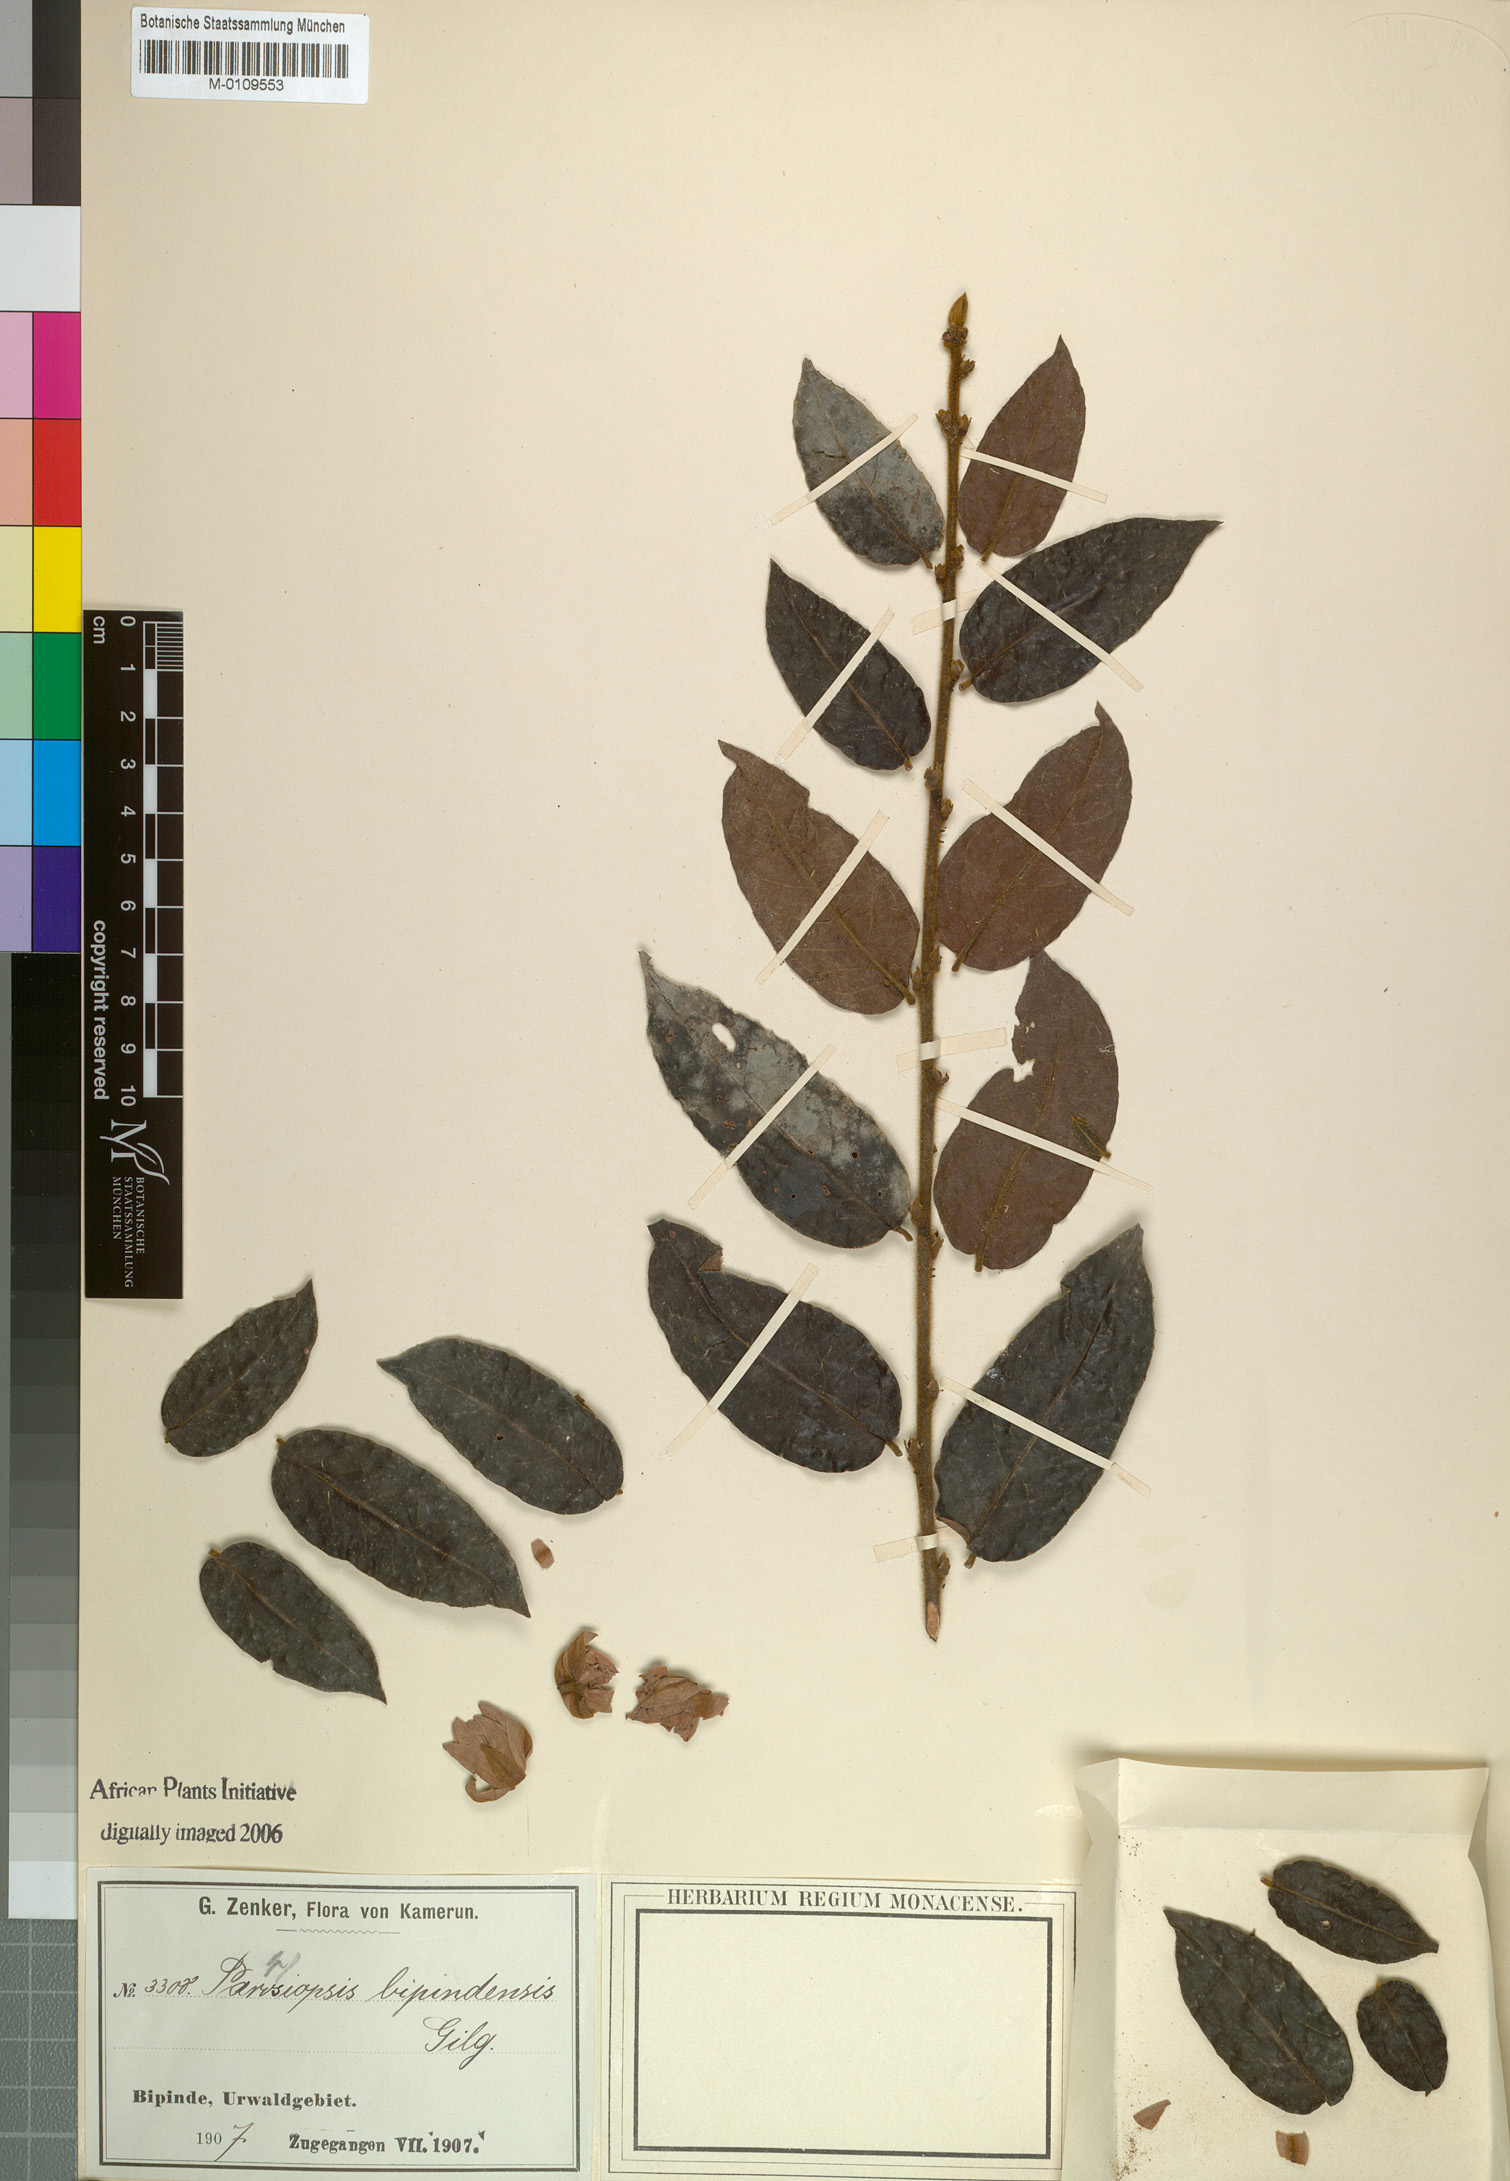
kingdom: Plantae
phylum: Tracheophyta
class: Magnoliopsida
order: Malpighiales
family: Passifloraceae
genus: Paropsiopsis
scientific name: Paropsiopsis decandra
